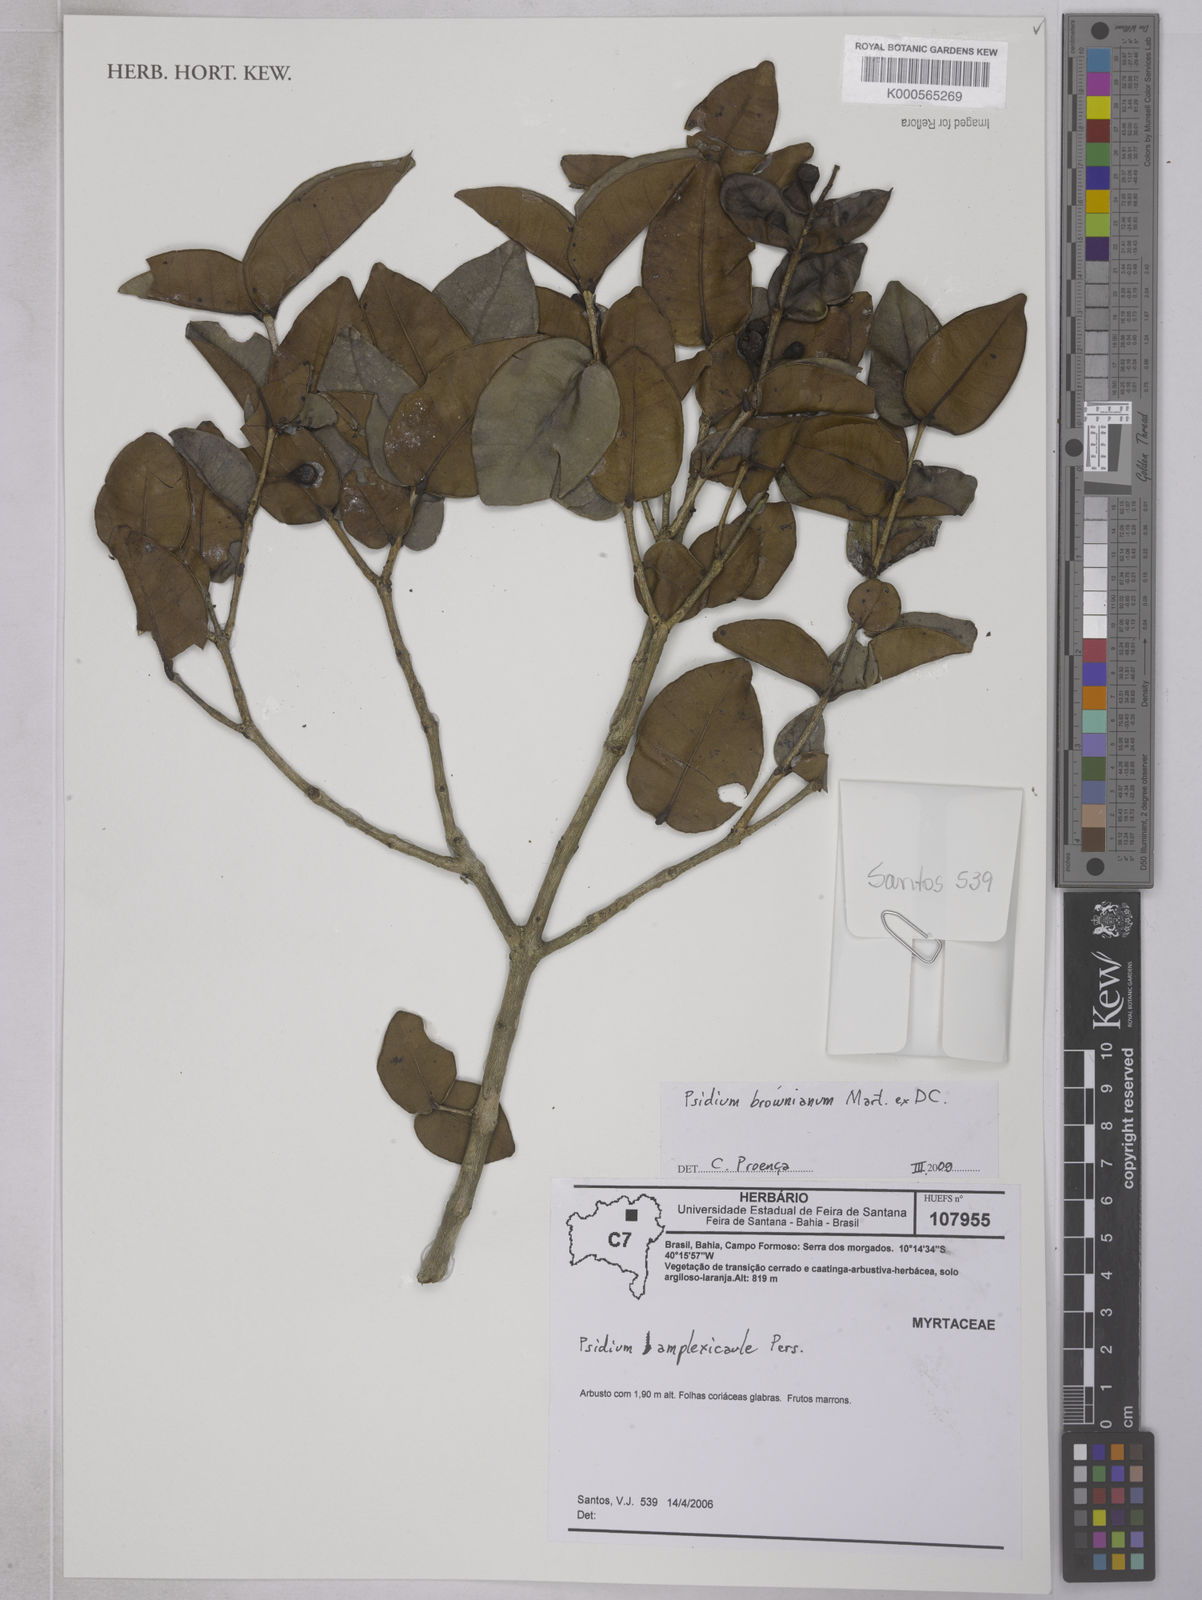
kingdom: Plantae
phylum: Tracheophyta
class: Magnoliopsida
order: Myrtales
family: Myrtaceae
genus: Psidium
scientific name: Psidium brownianum
